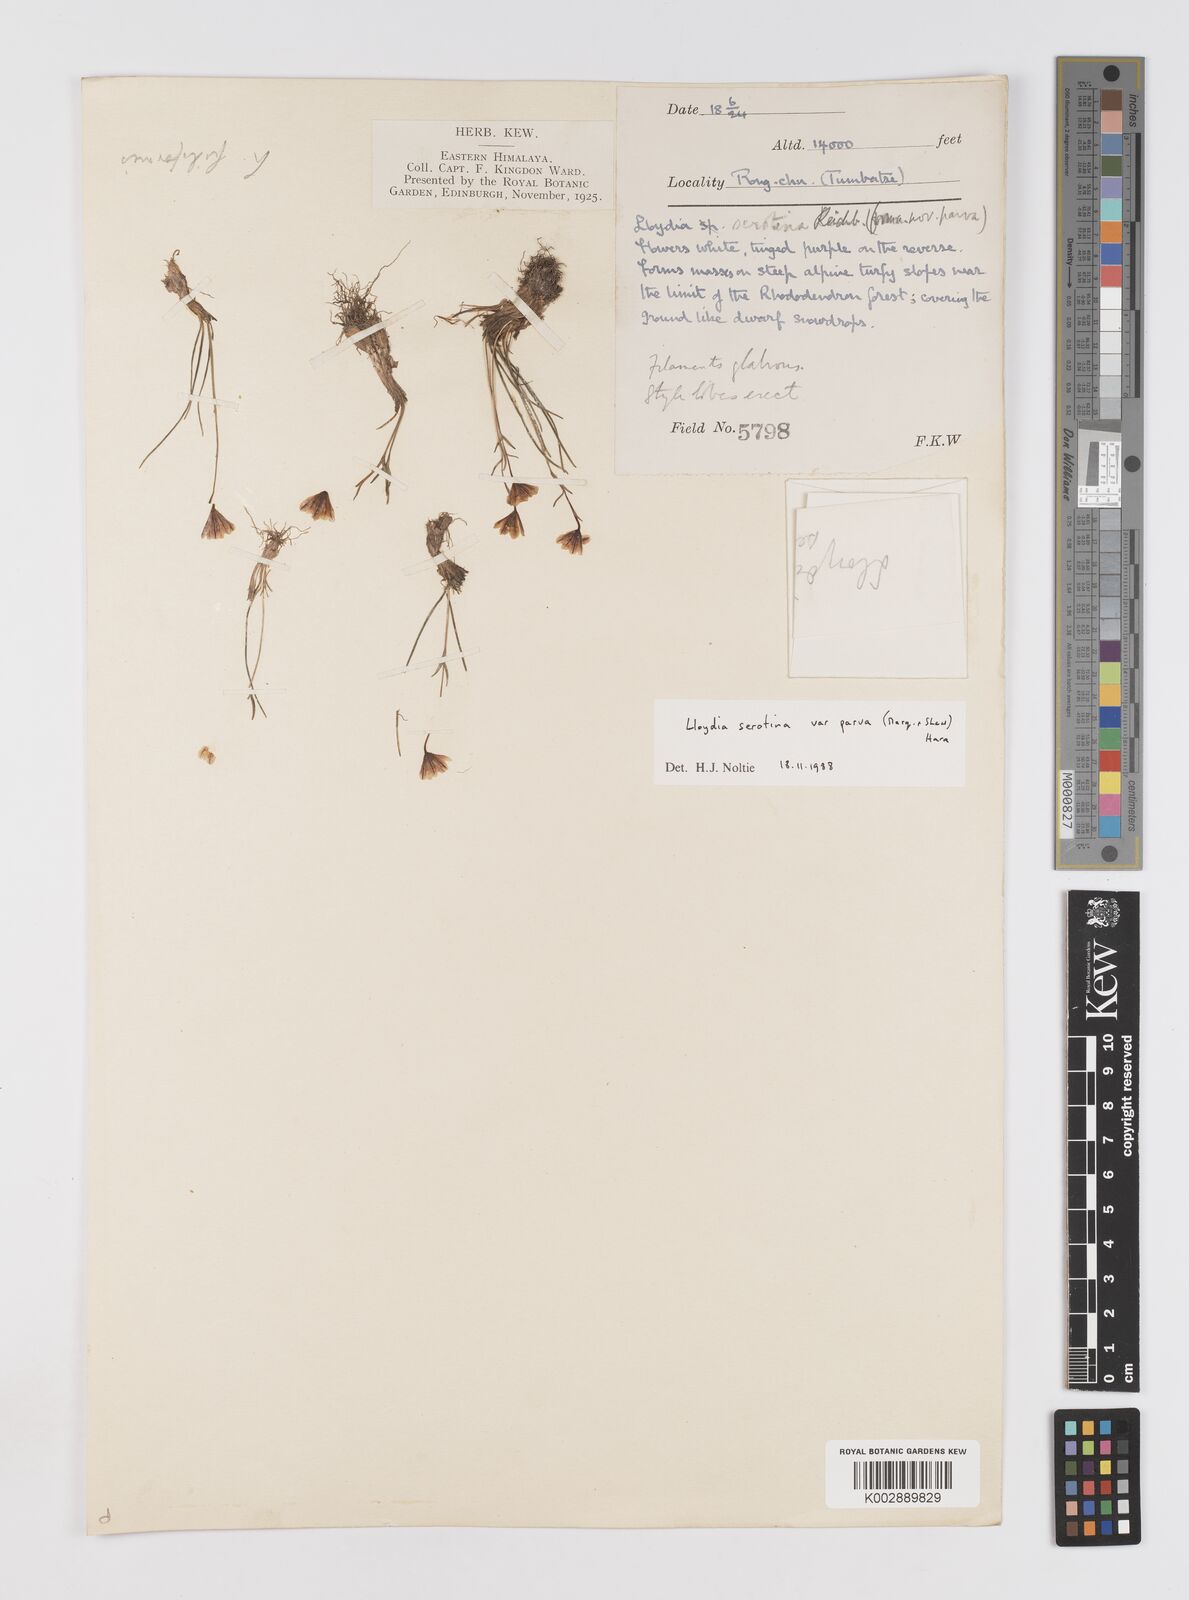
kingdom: Plantae
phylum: Tracheophyta
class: Liliopsida
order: Liliales
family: Liliaceae
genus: Gagea
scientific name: Gagea serotina
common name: Snowdon lily
